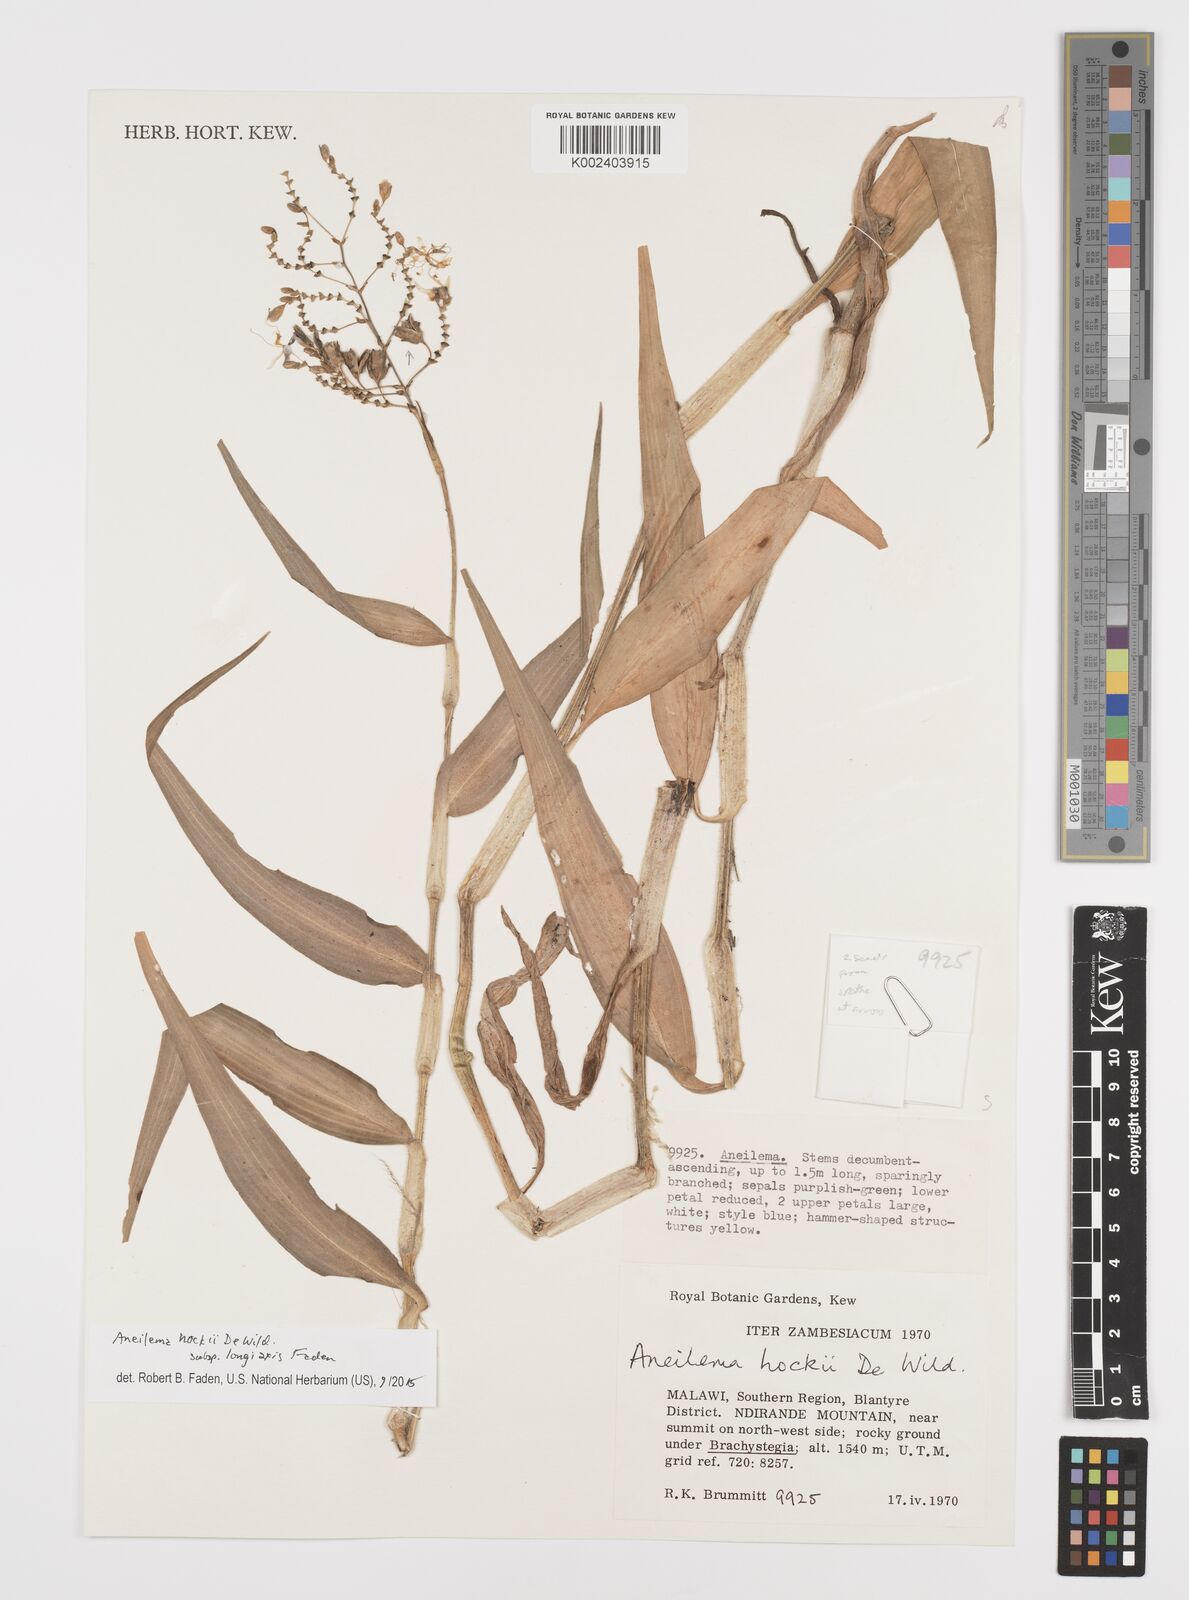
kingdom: Plantae
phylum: Tracheophyta
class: Liliopsida
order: Commelinales
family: Commelinaceae
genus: Aneilema
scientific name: Aneilema hockii
